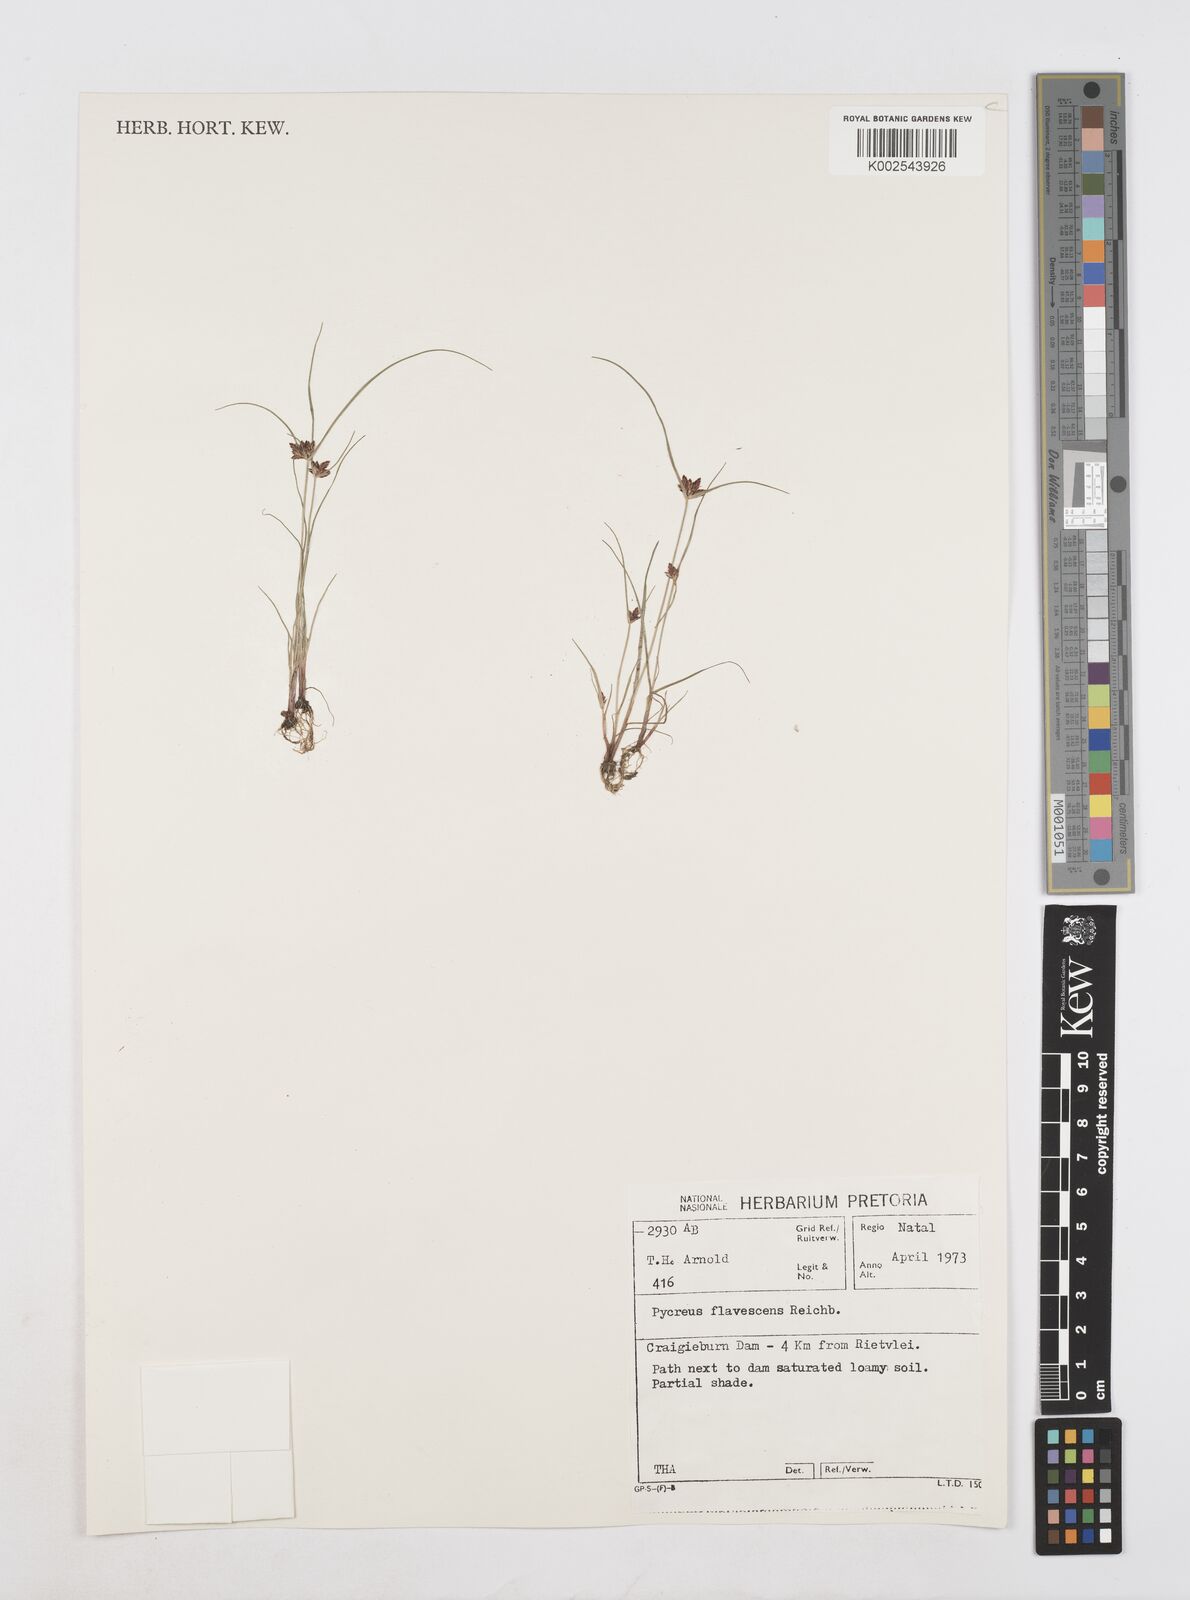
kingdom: Plantae
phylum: Tracheophyta
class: Liliopsida
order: Poales
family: Cyperaceae
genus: Cyperus
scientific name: Cyperus flavescens
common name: Yellow galingale
